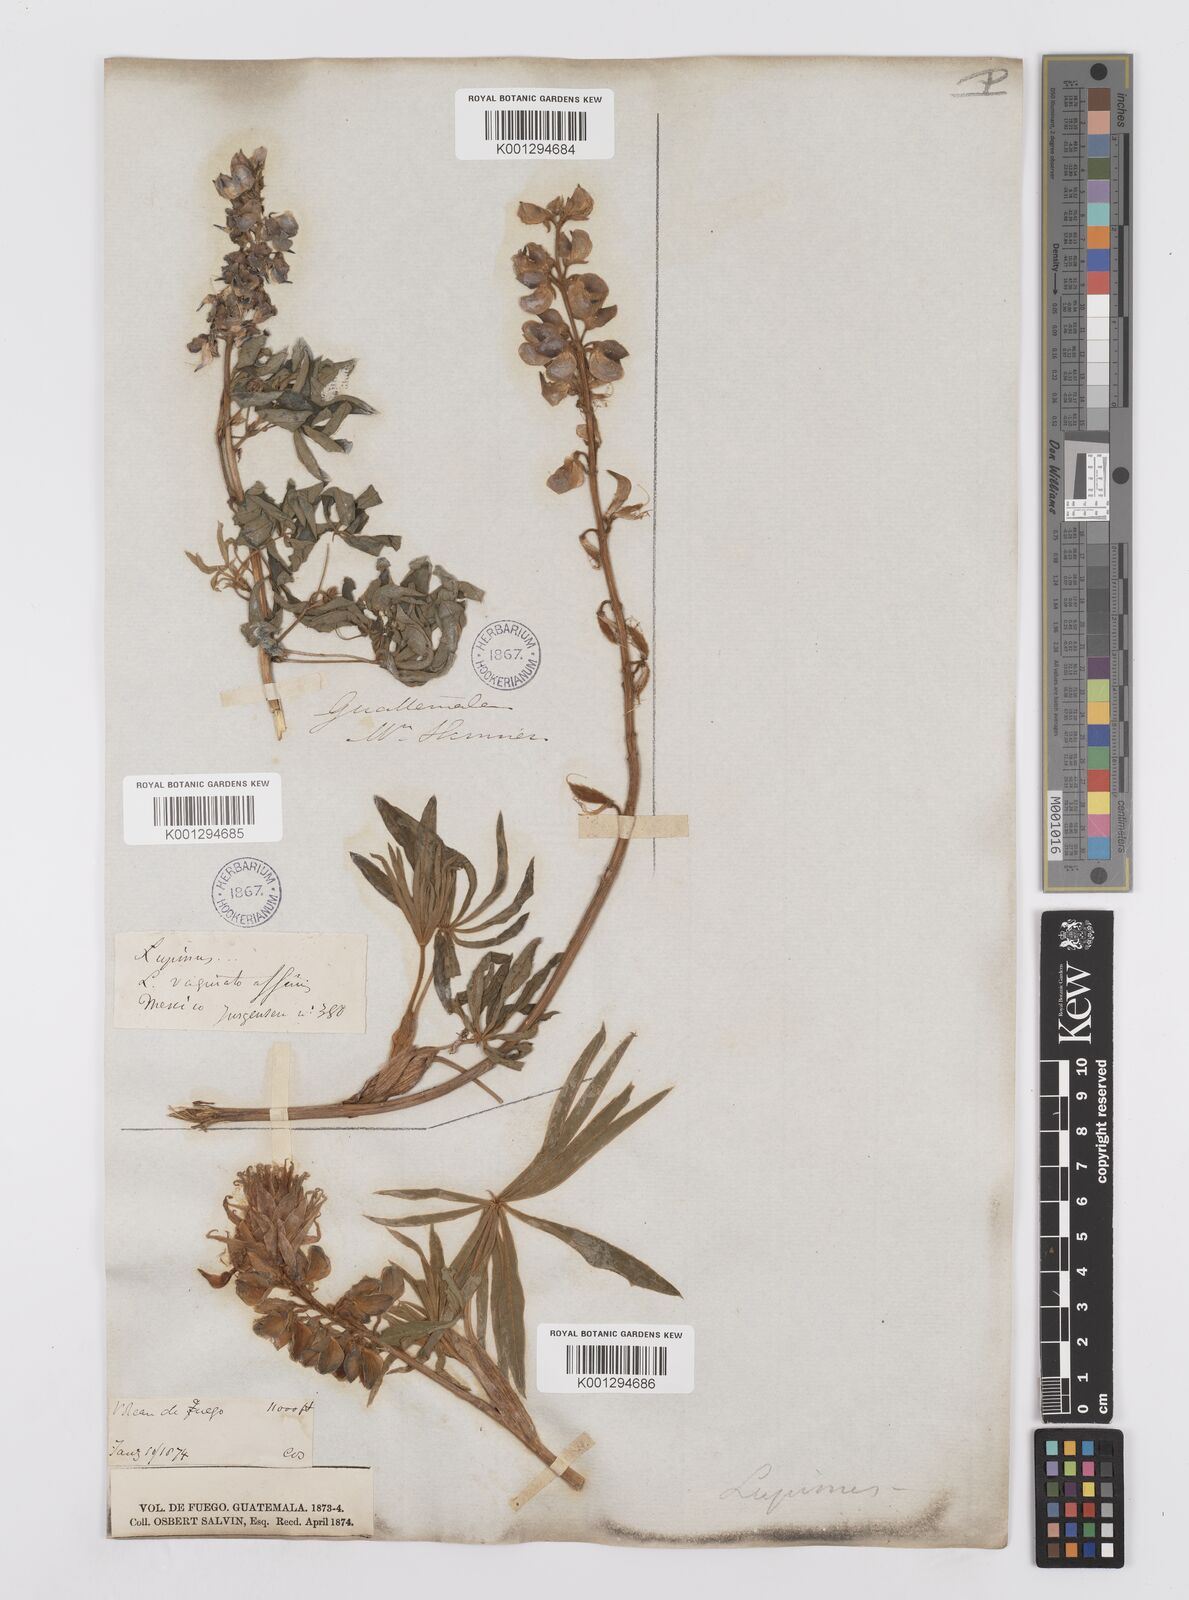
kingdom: Plantae
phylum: Tracheophyta
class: Magnoliopsida
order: Fabales
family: Fabaceae
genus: Lupinus
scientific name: Lupinus montanus
